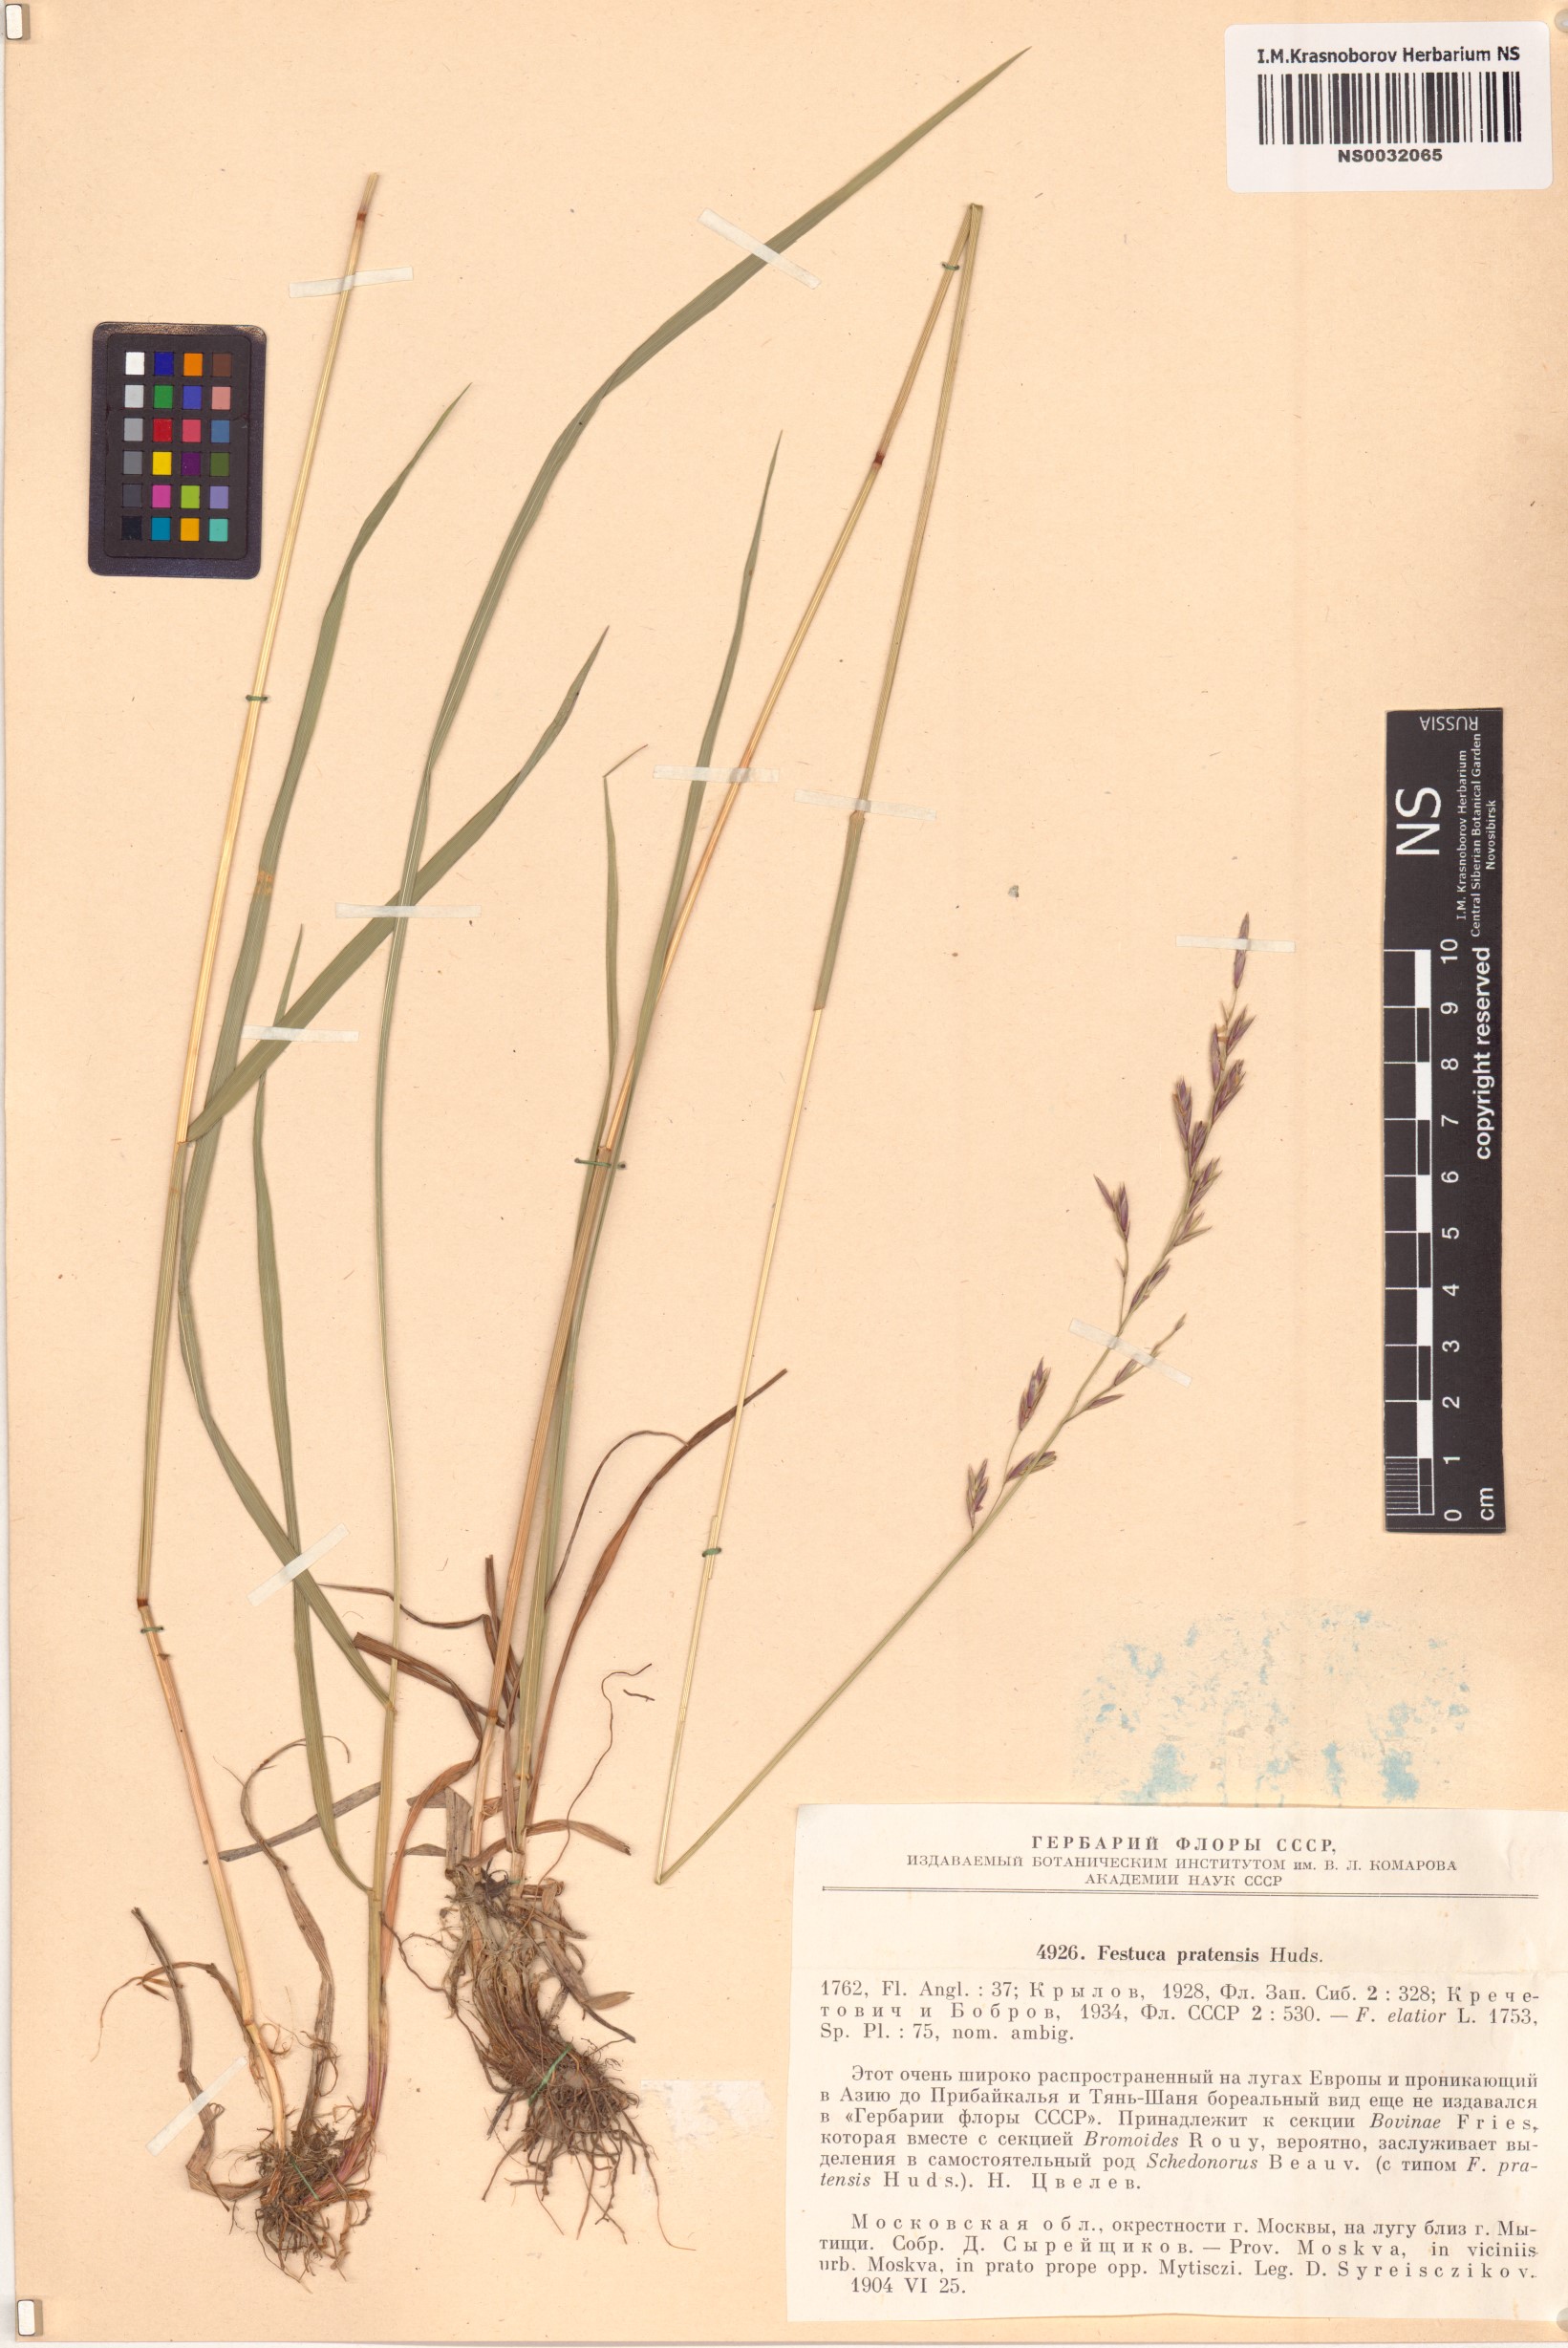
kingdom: Plantae
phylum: Tracheophyta
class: Liliopsida
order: Poales
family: Poaceae
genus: Lolium
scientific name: Lolium pratense
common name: Dover grass
